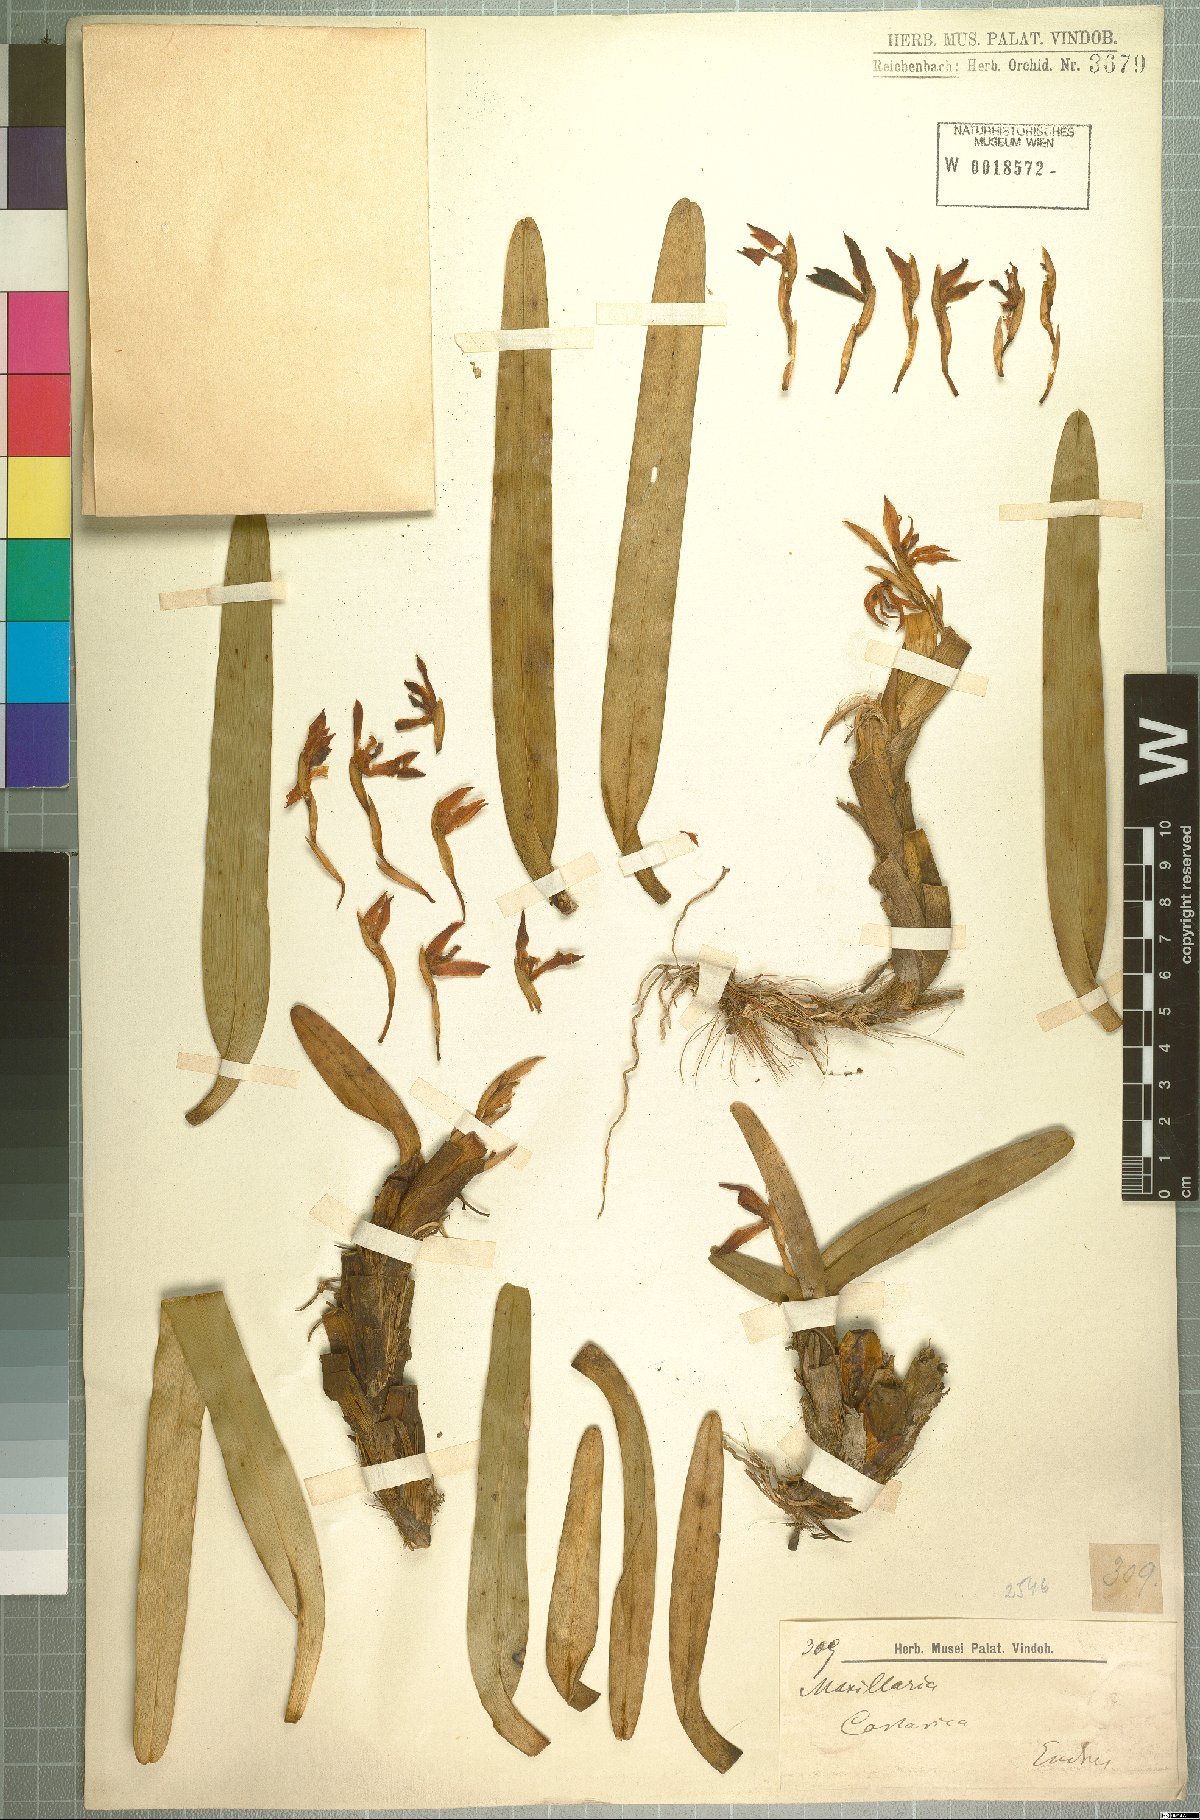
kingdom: Plantae
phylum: Tracheophyta
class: Liliopsida
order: Asparagales
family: Orchidaceae
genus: Maxillaria
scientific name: Maxillaria
